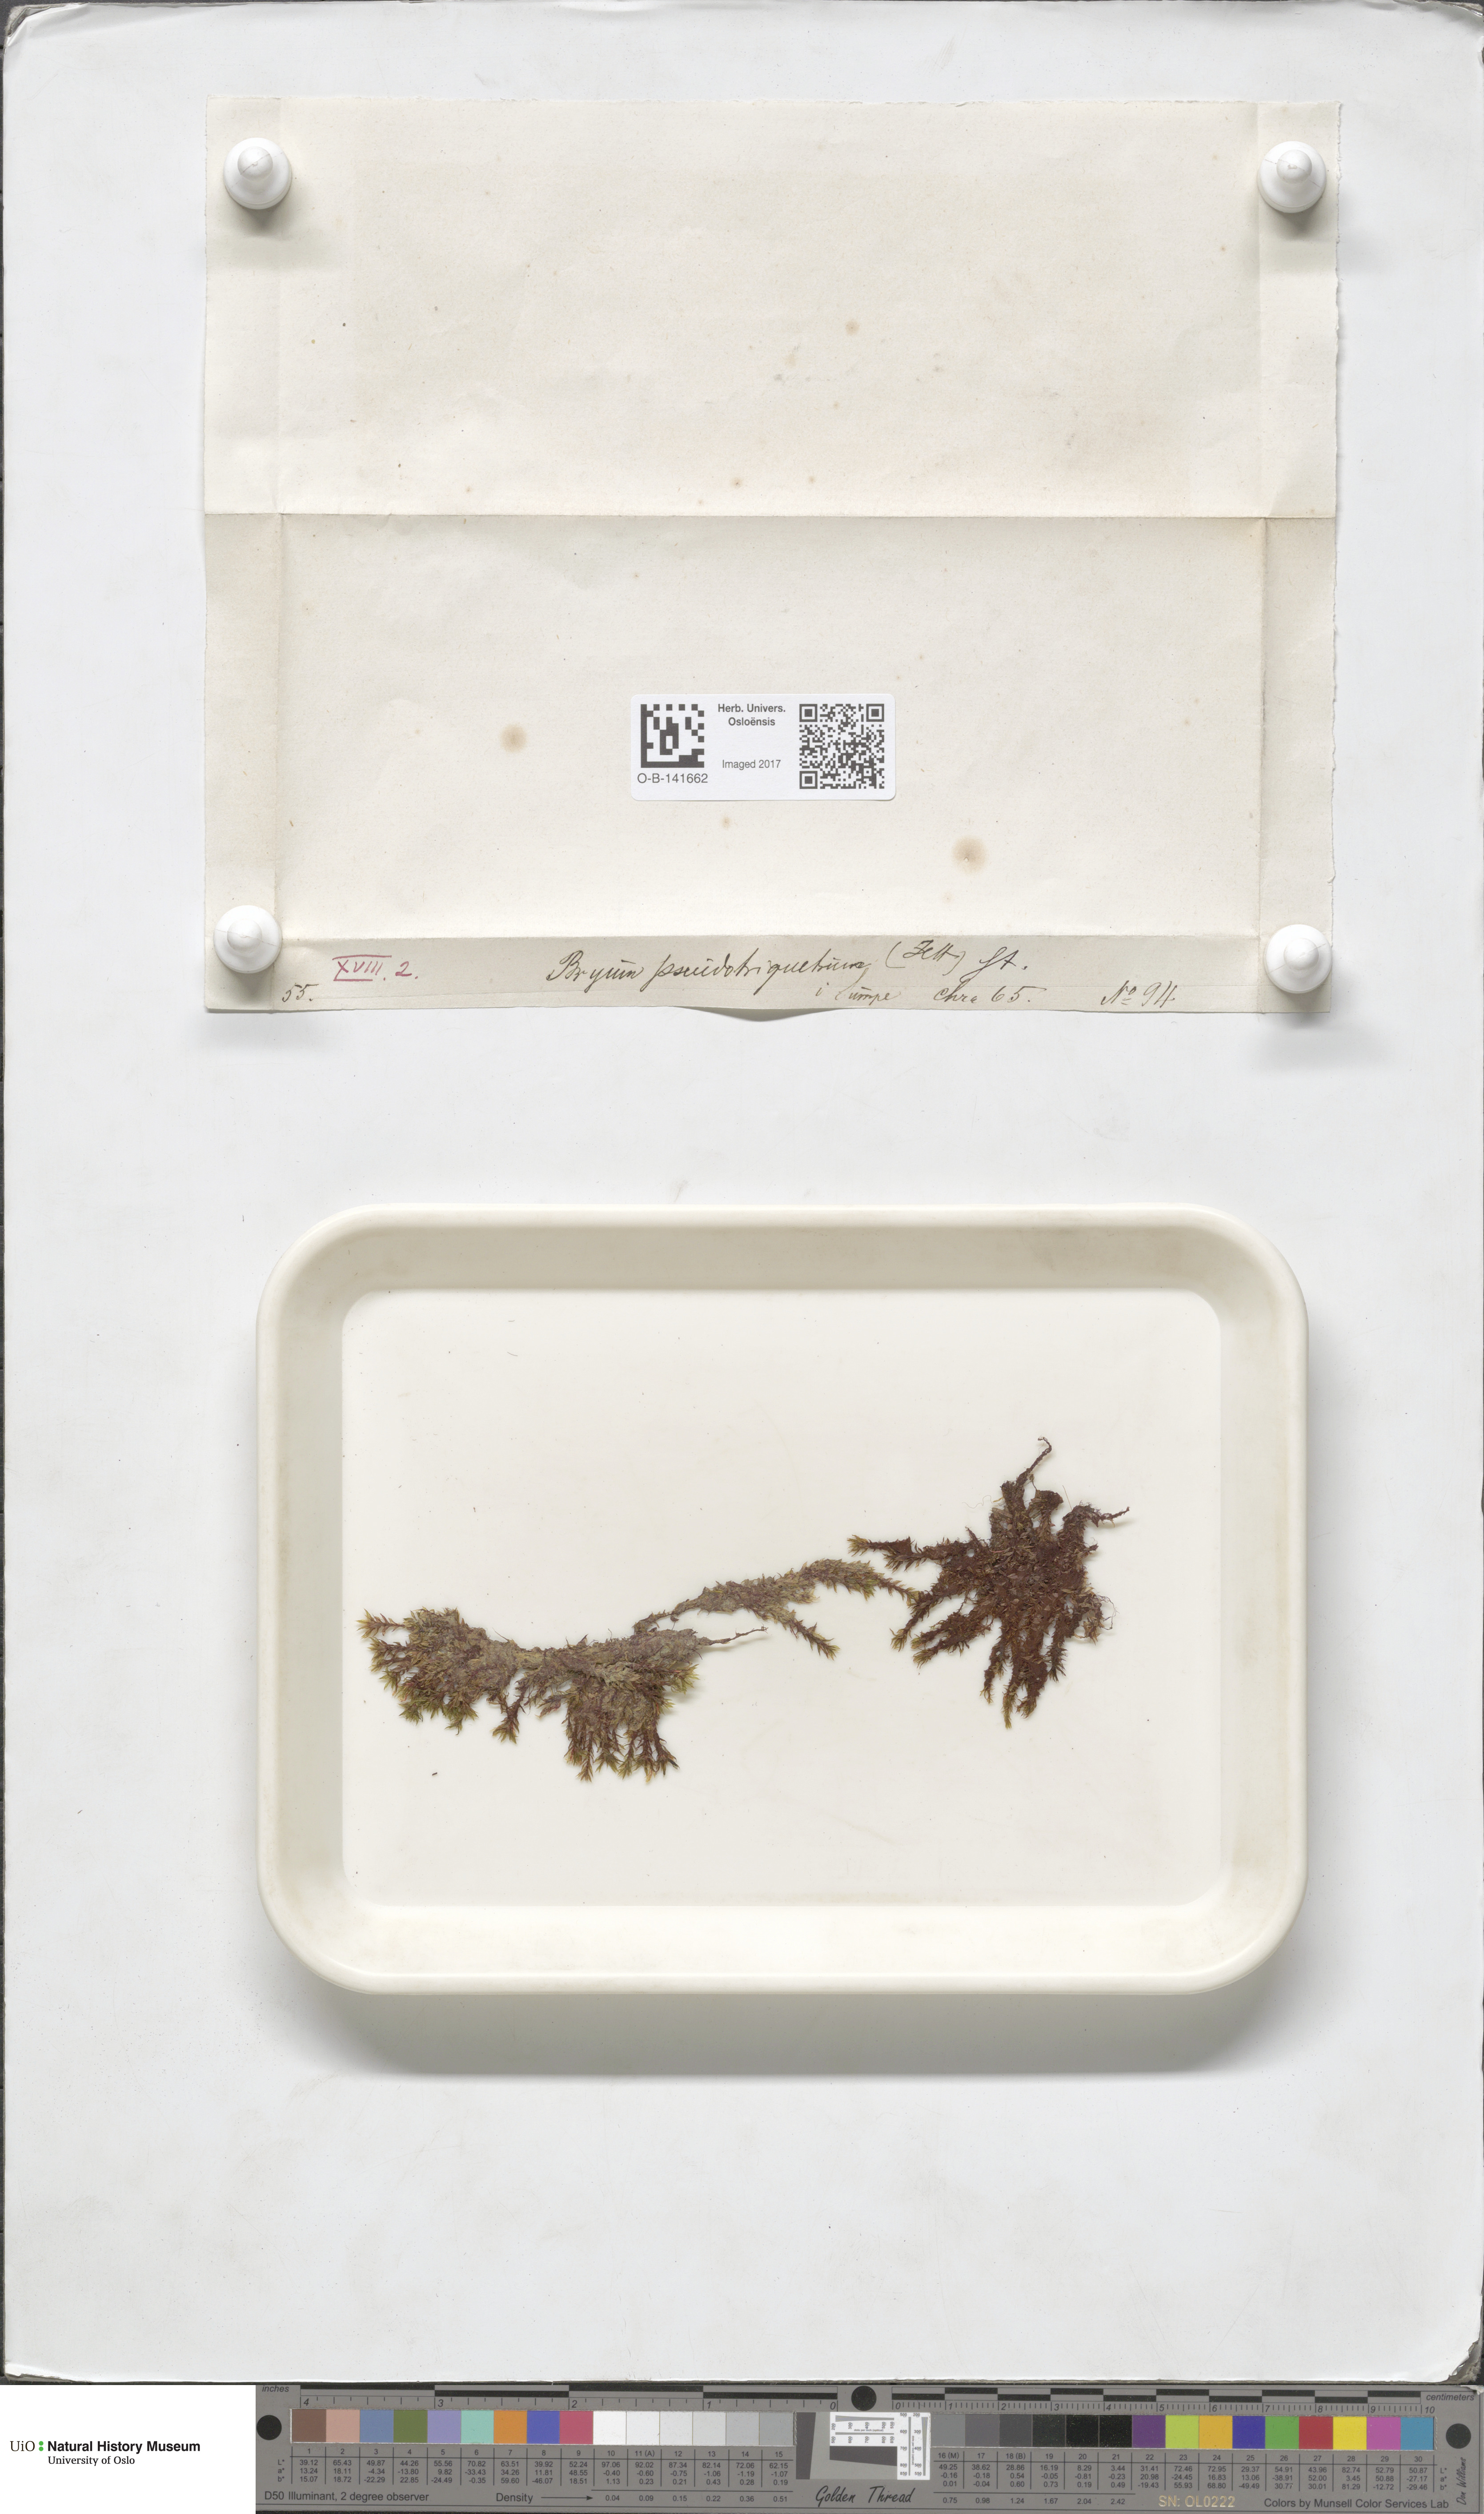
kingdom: Plantae
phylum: Bryophyta
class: Bryopsida
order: Bryales
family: Bryaceae
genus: Ptychostomum
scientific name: Ptychostomum pseudotriquetrum
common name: Long-leaved thread moss
